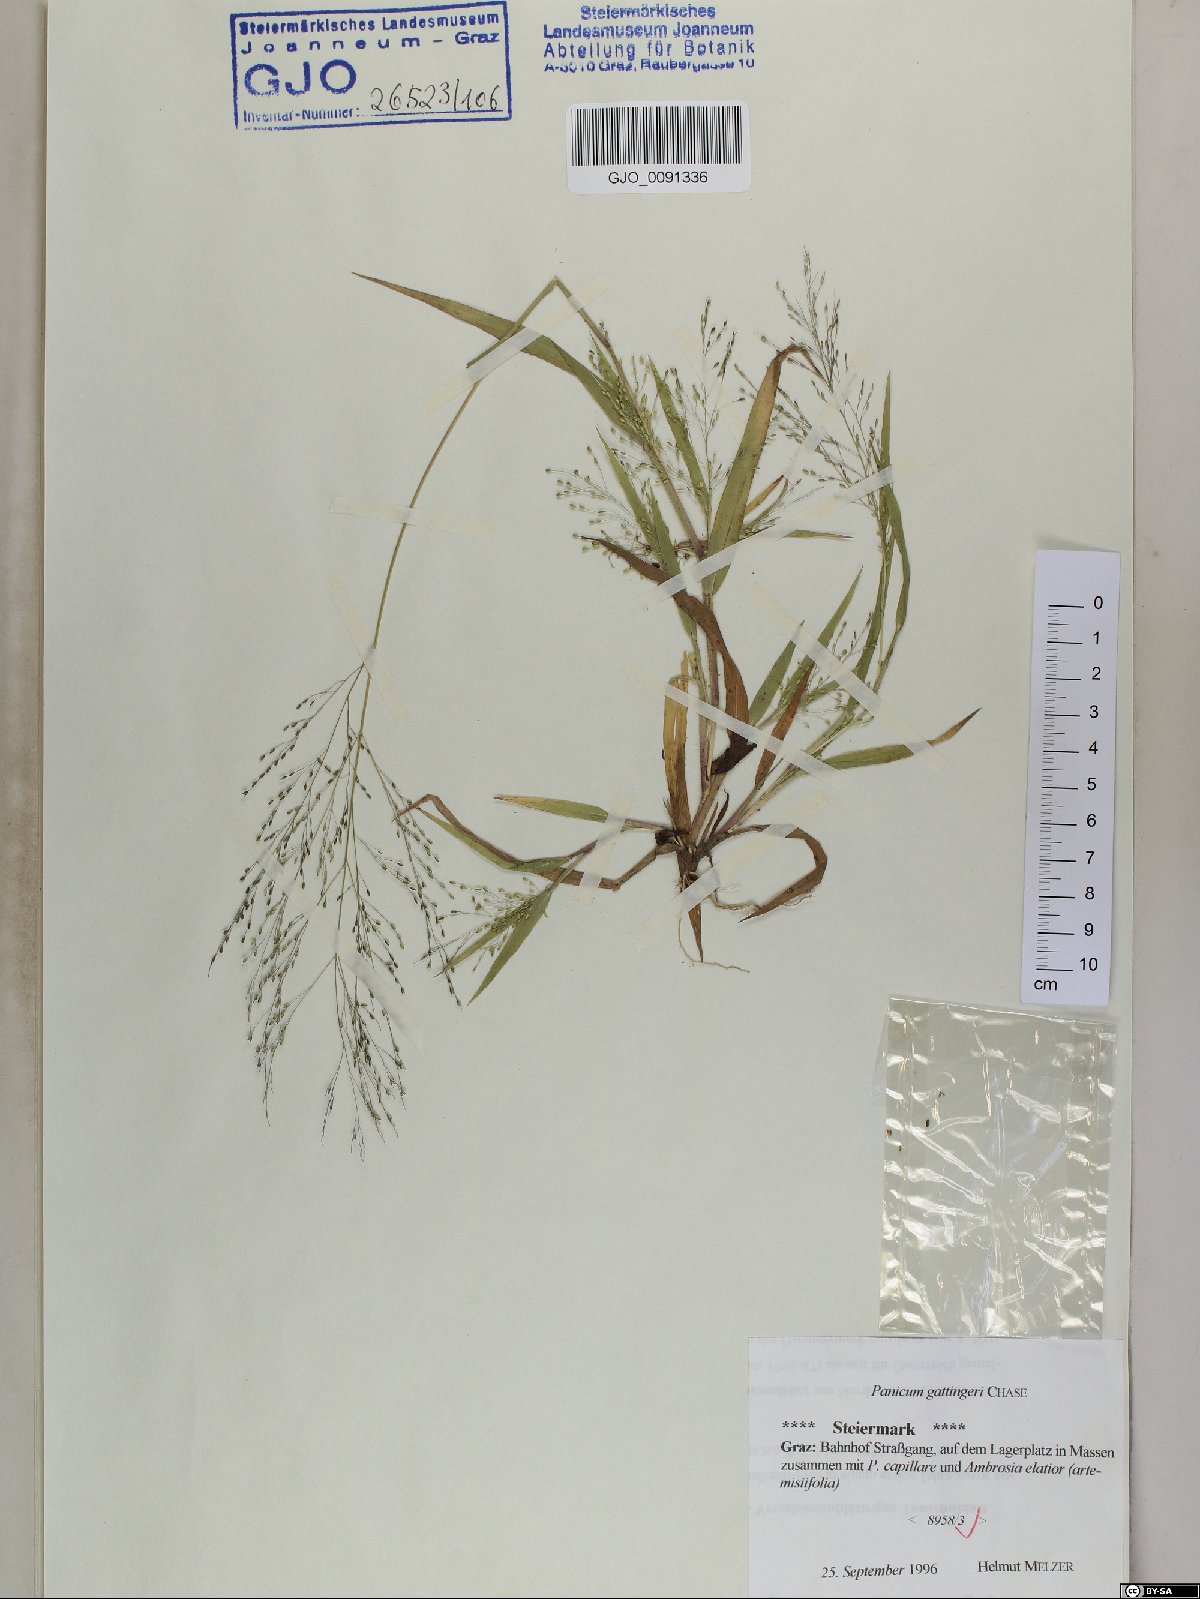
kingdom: Plantae
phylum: Tracheophyta
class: Liliopsida
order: Poales
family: Poaceae
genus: Panicum
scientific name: Panicum gattingeri
